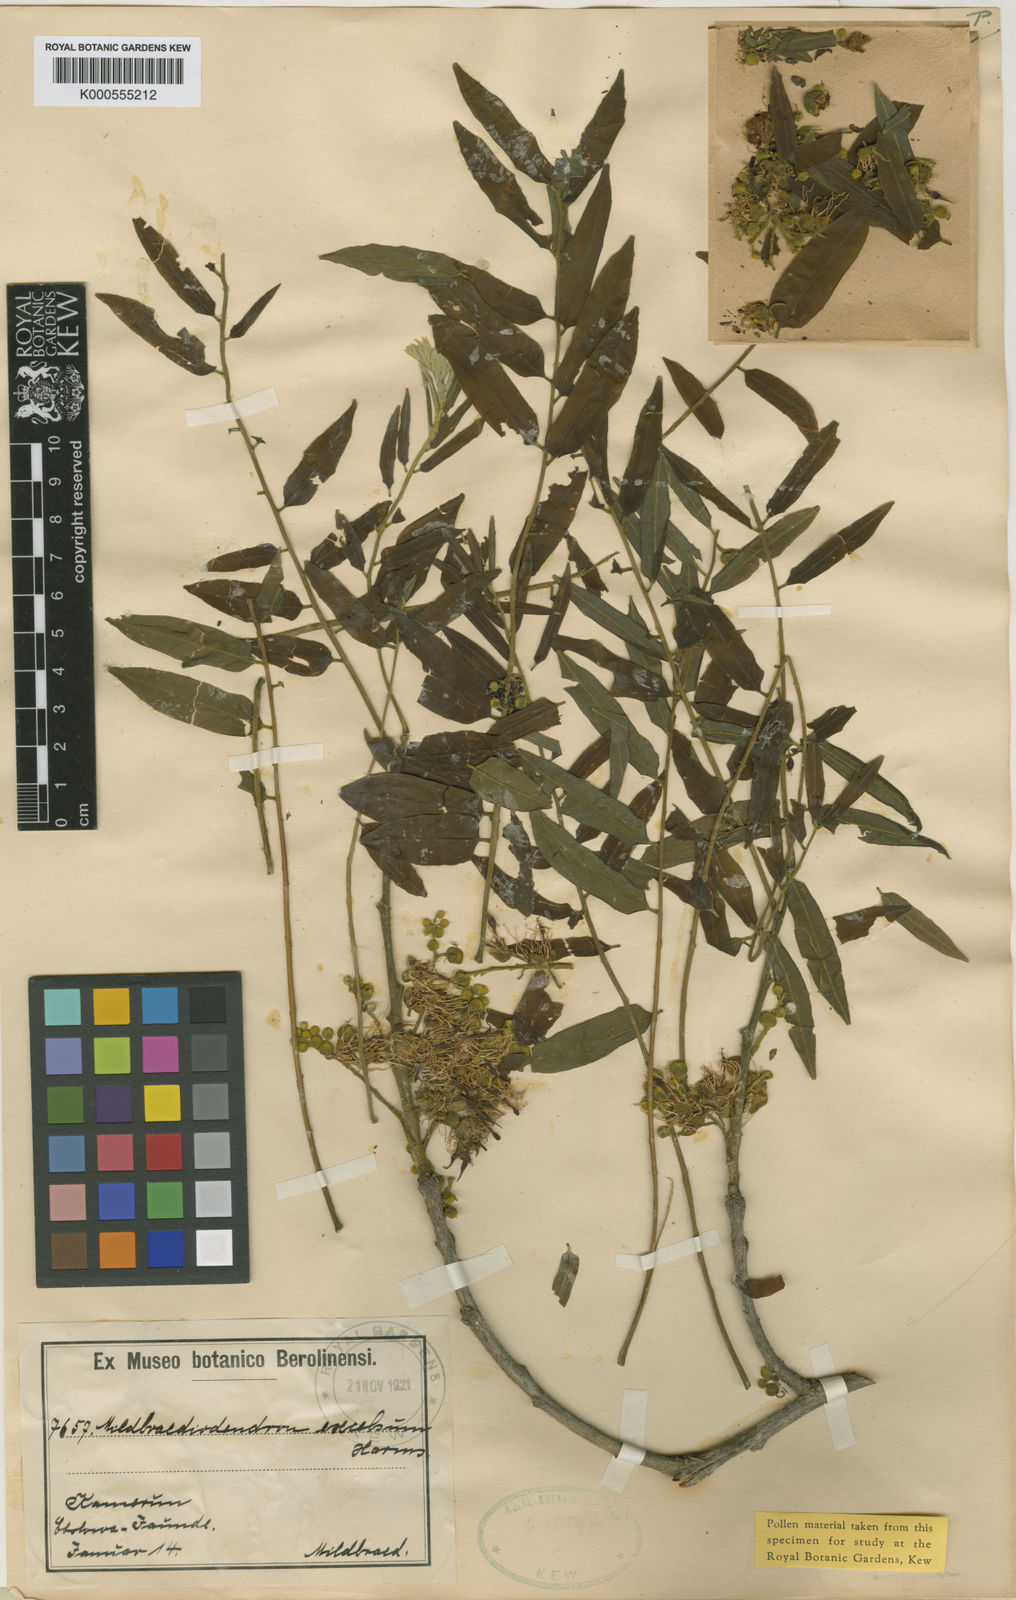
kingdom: Plantae
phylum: Tracheophyta
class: Magnoliopsida
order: Fabales
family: Fabaceae
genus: Mildbraediodendron
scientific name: Mildbraediodendron excelsum
